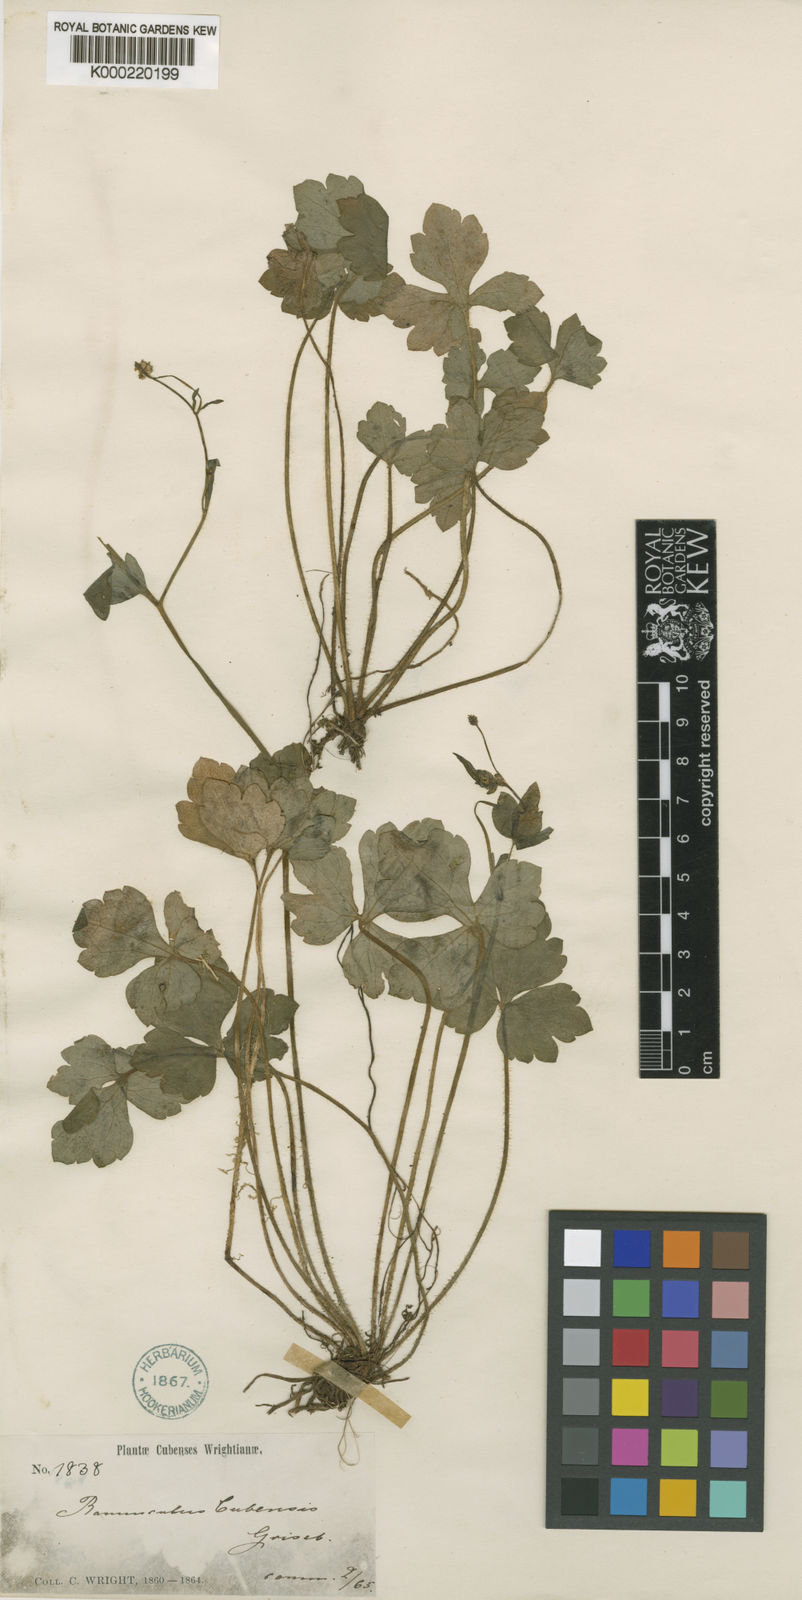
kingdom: Plantae
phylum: Tracheophyta
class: Magnoliopsida
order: Ranunculales
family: Ranunculaceae
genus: Ranunculus
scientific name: Ranunculus recurvatus
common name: Blisterwort
